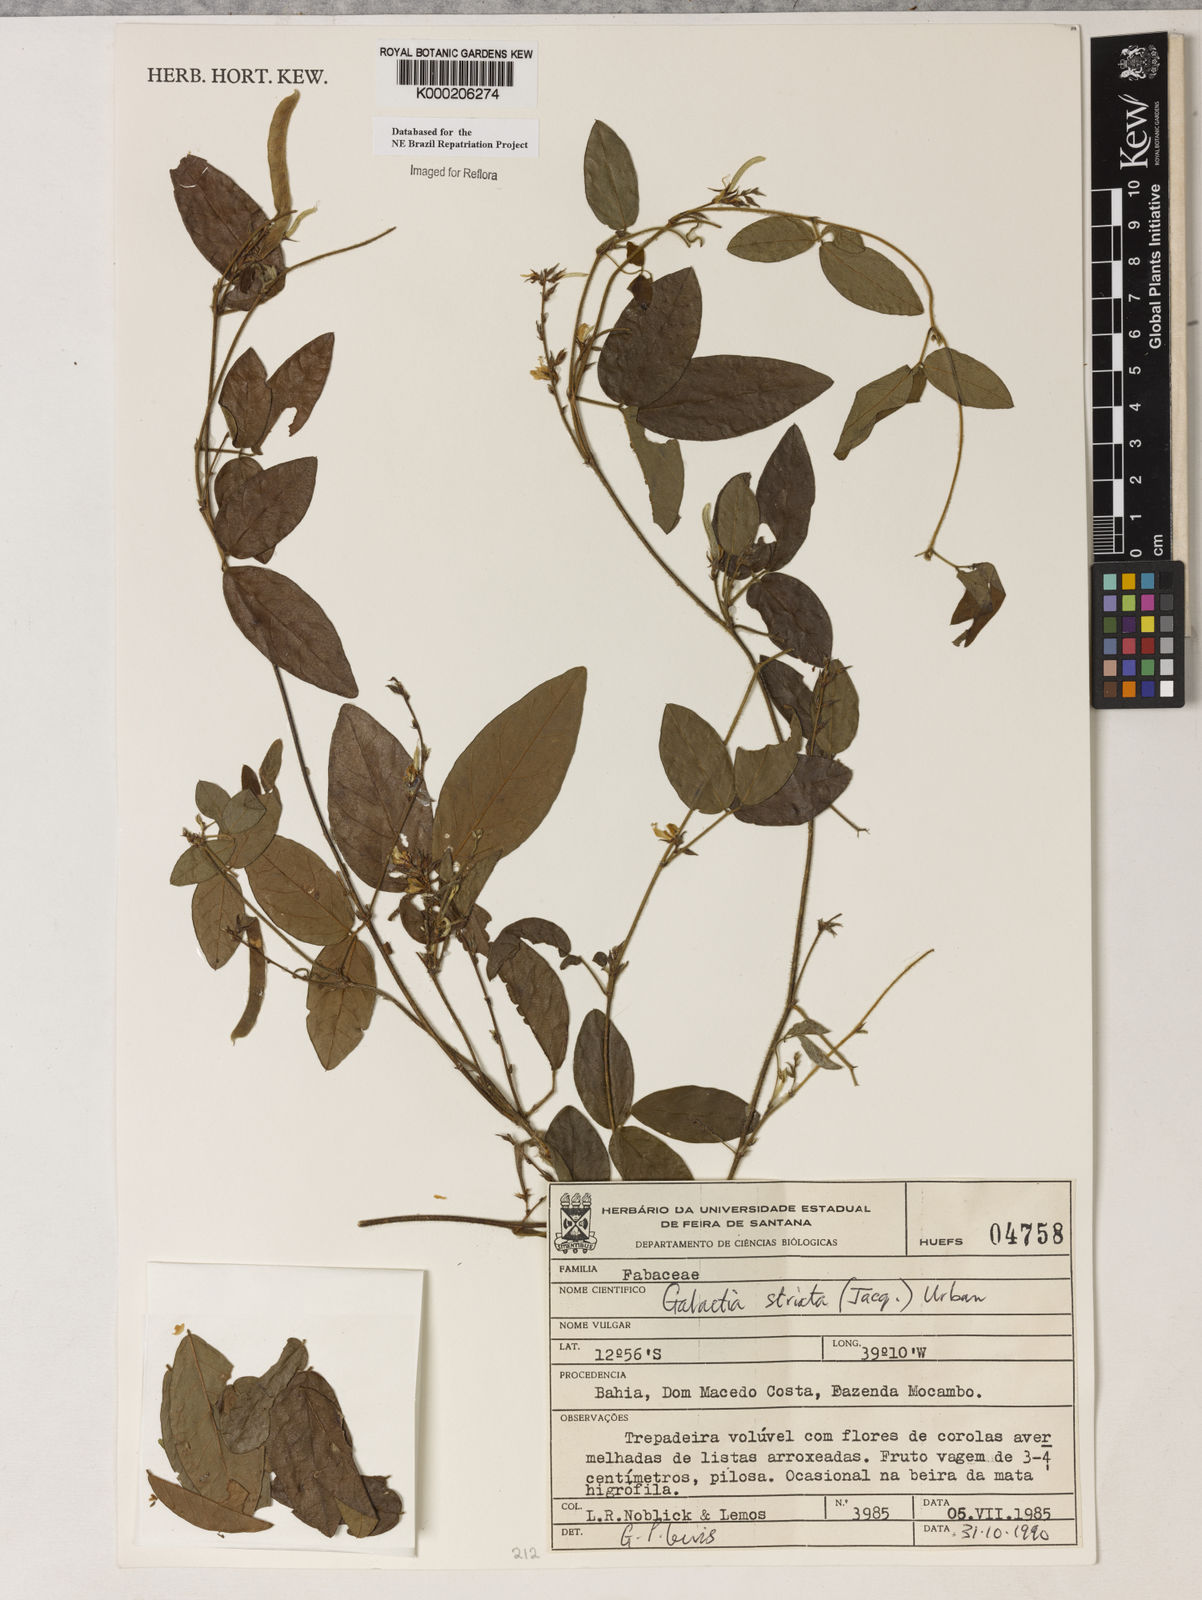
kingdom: Plantae
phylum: Tracheophyta
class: Magnoliopsida
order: Fabales
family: Fabaceae
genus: Galactia
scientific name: Galactia striata
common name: Florida hammock milkpea
